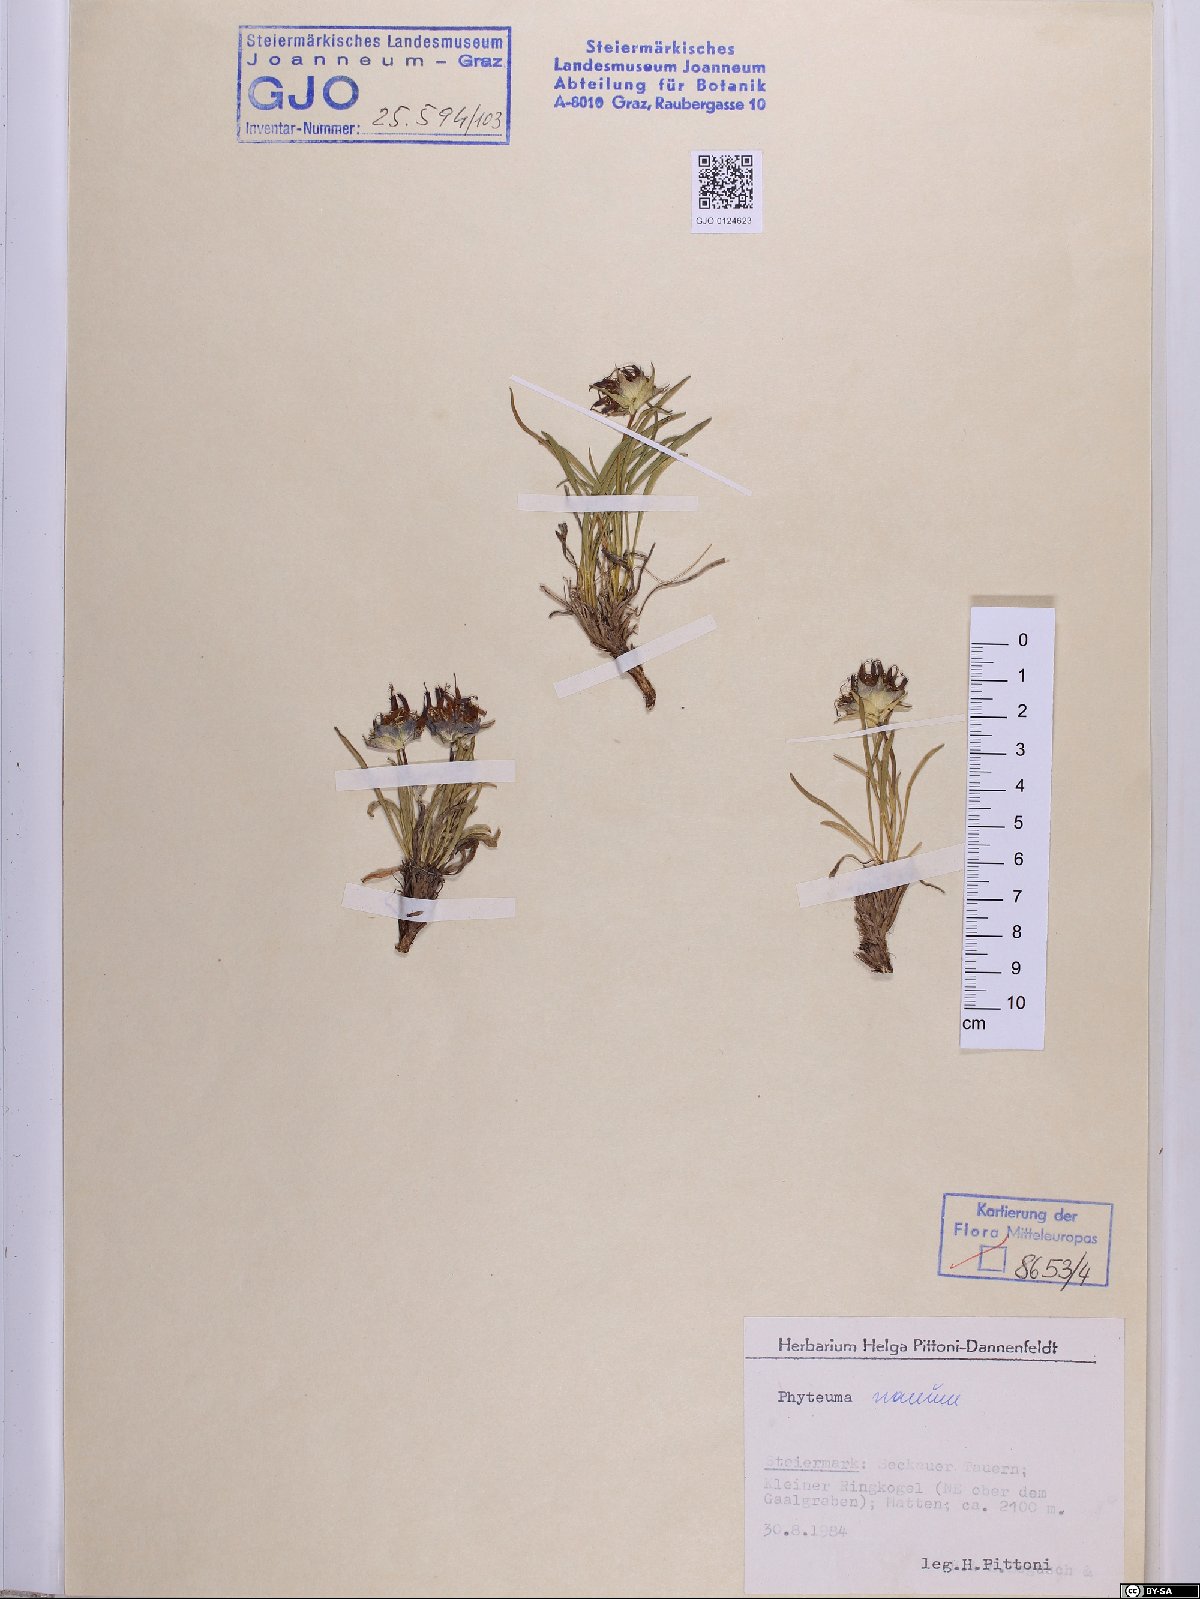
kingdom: Plantae
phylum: Tracheophyta
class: Magnoliopsida
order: Asterales
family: Campanulaceae
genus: Phyteuma
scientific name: Phyteuma globulariifolium
